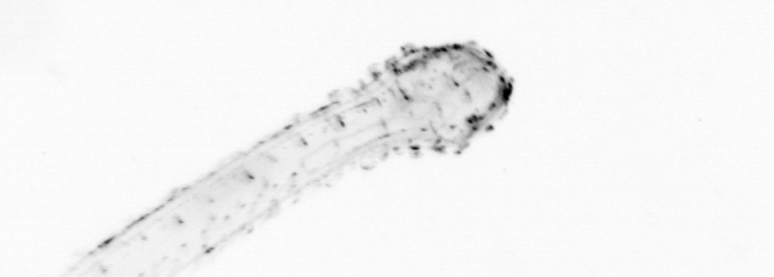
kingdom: Animalia
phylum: Chaetognatha
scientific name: Chaetognatha
